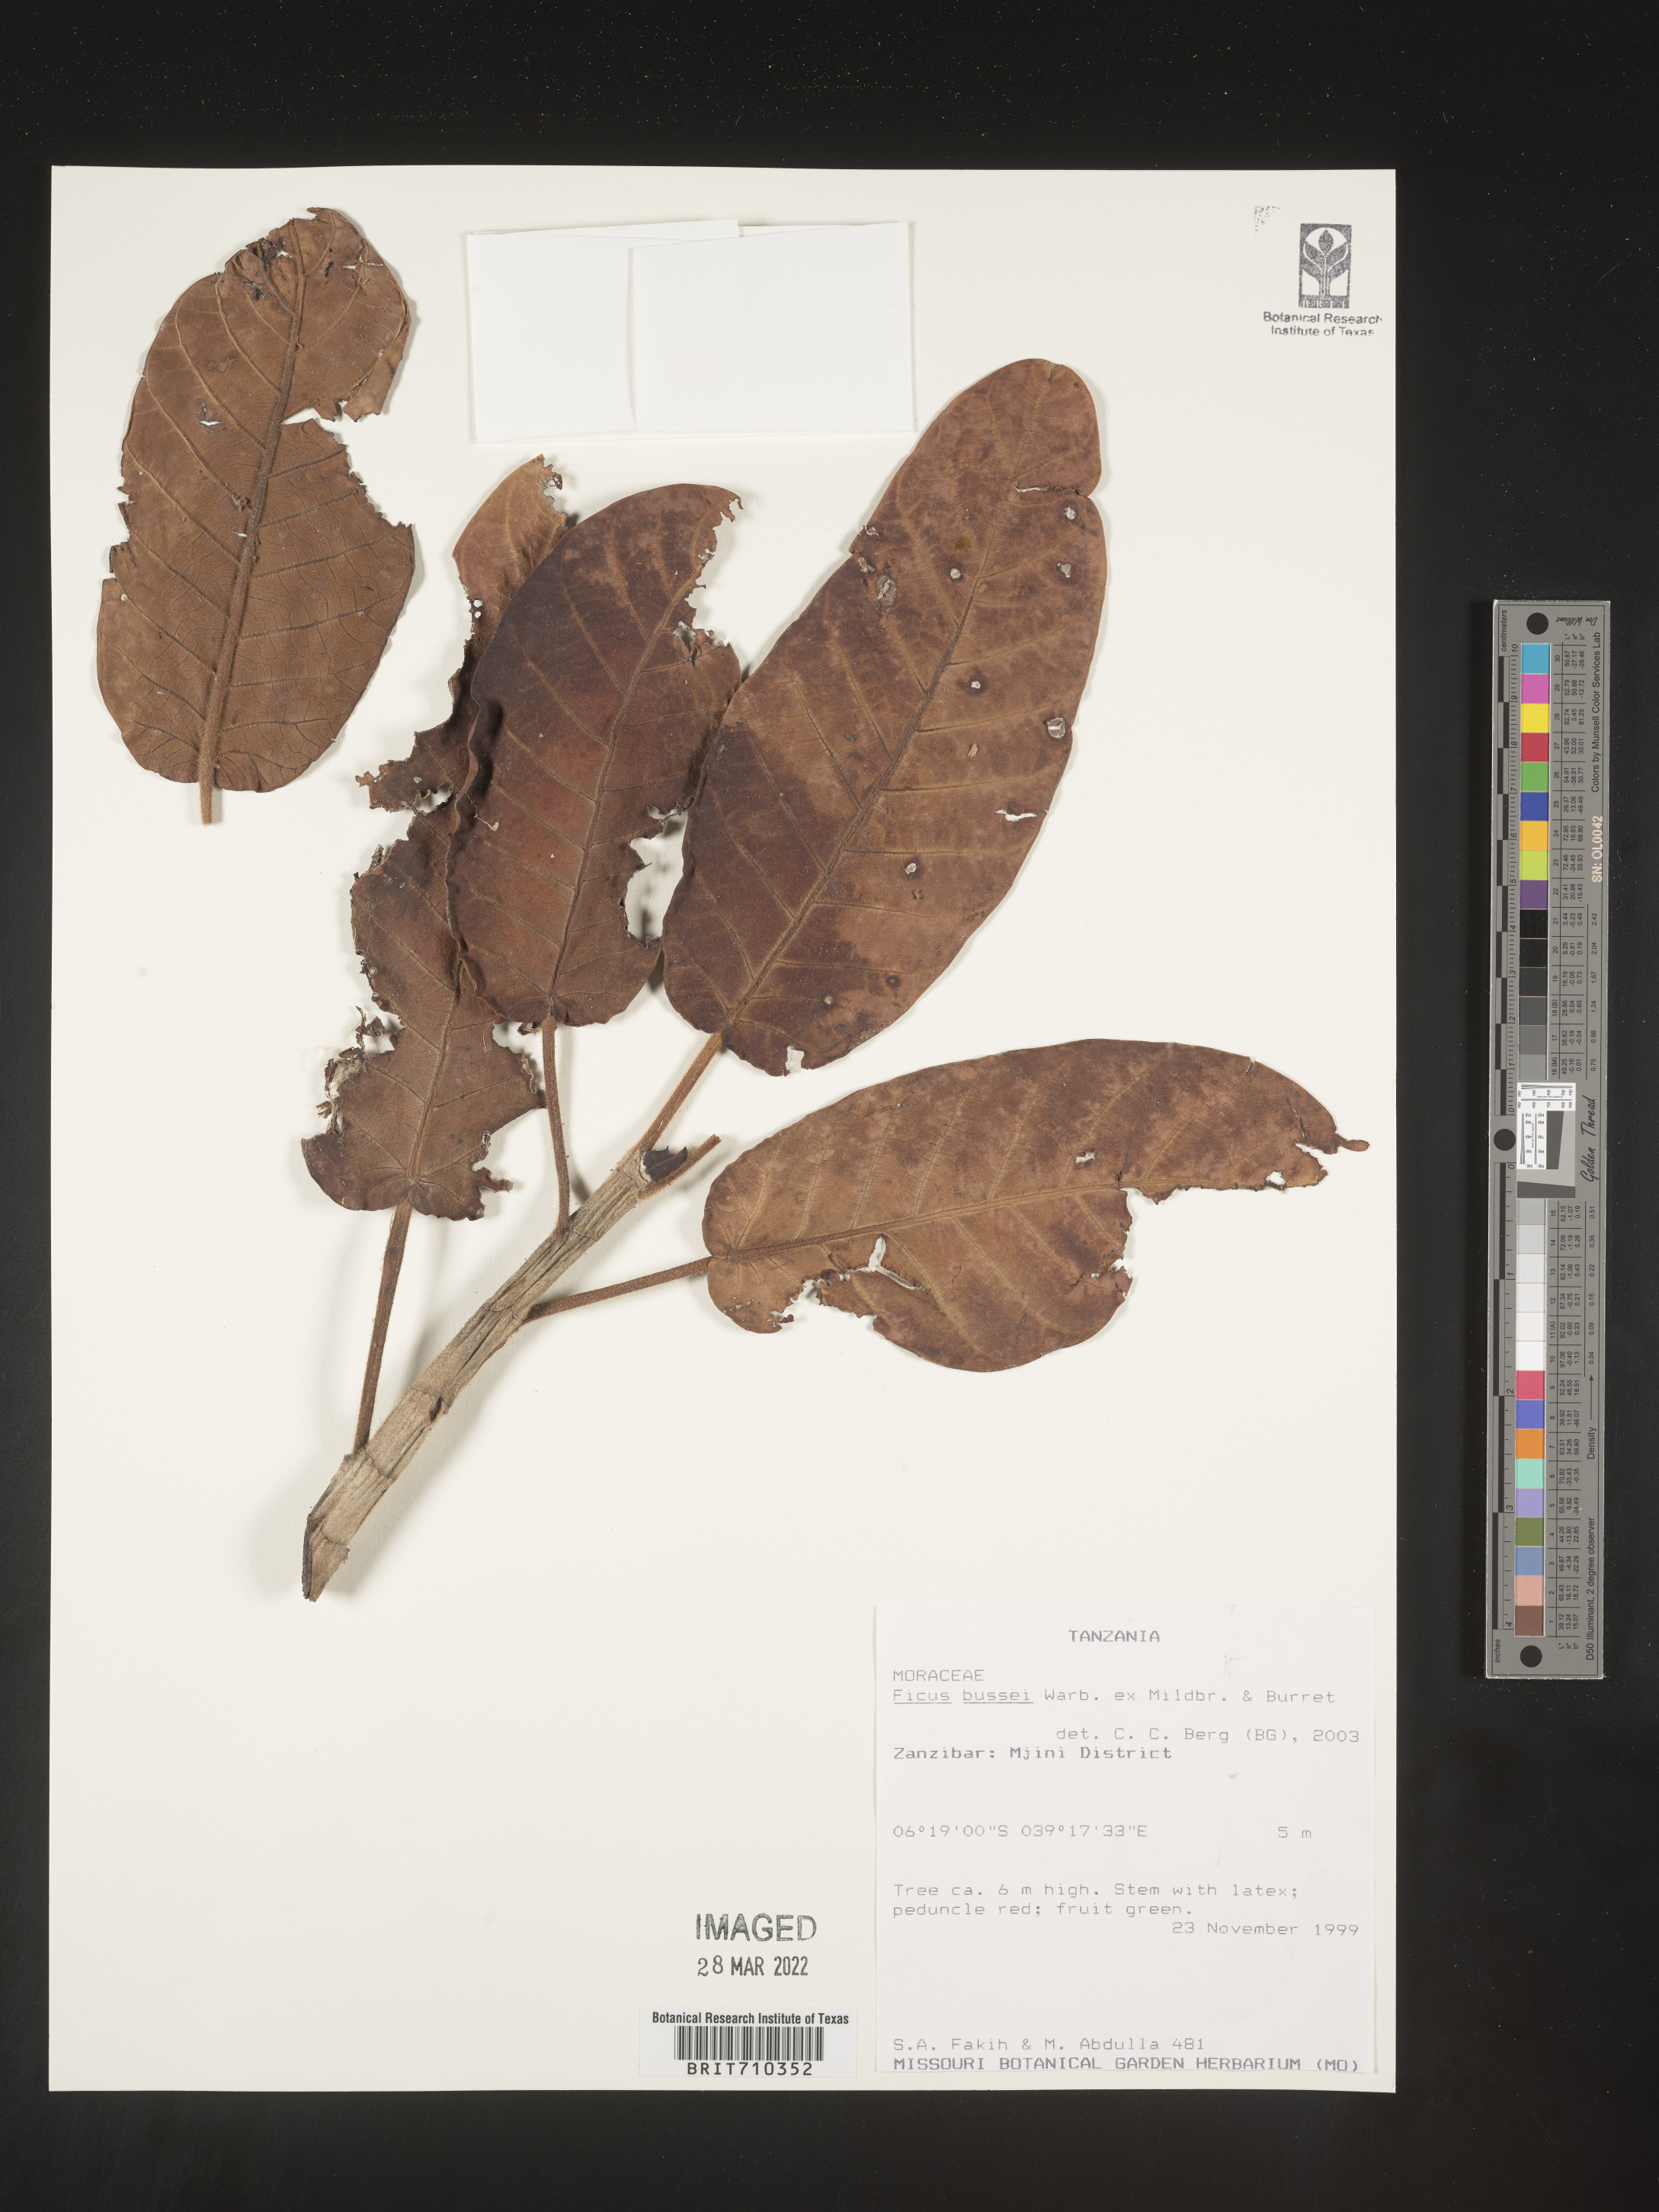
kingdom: Plantae
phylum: Tracheophyta
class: Magnoliopsida
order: Rosales
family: Moraceae
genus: Ficus
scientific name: Ficus
